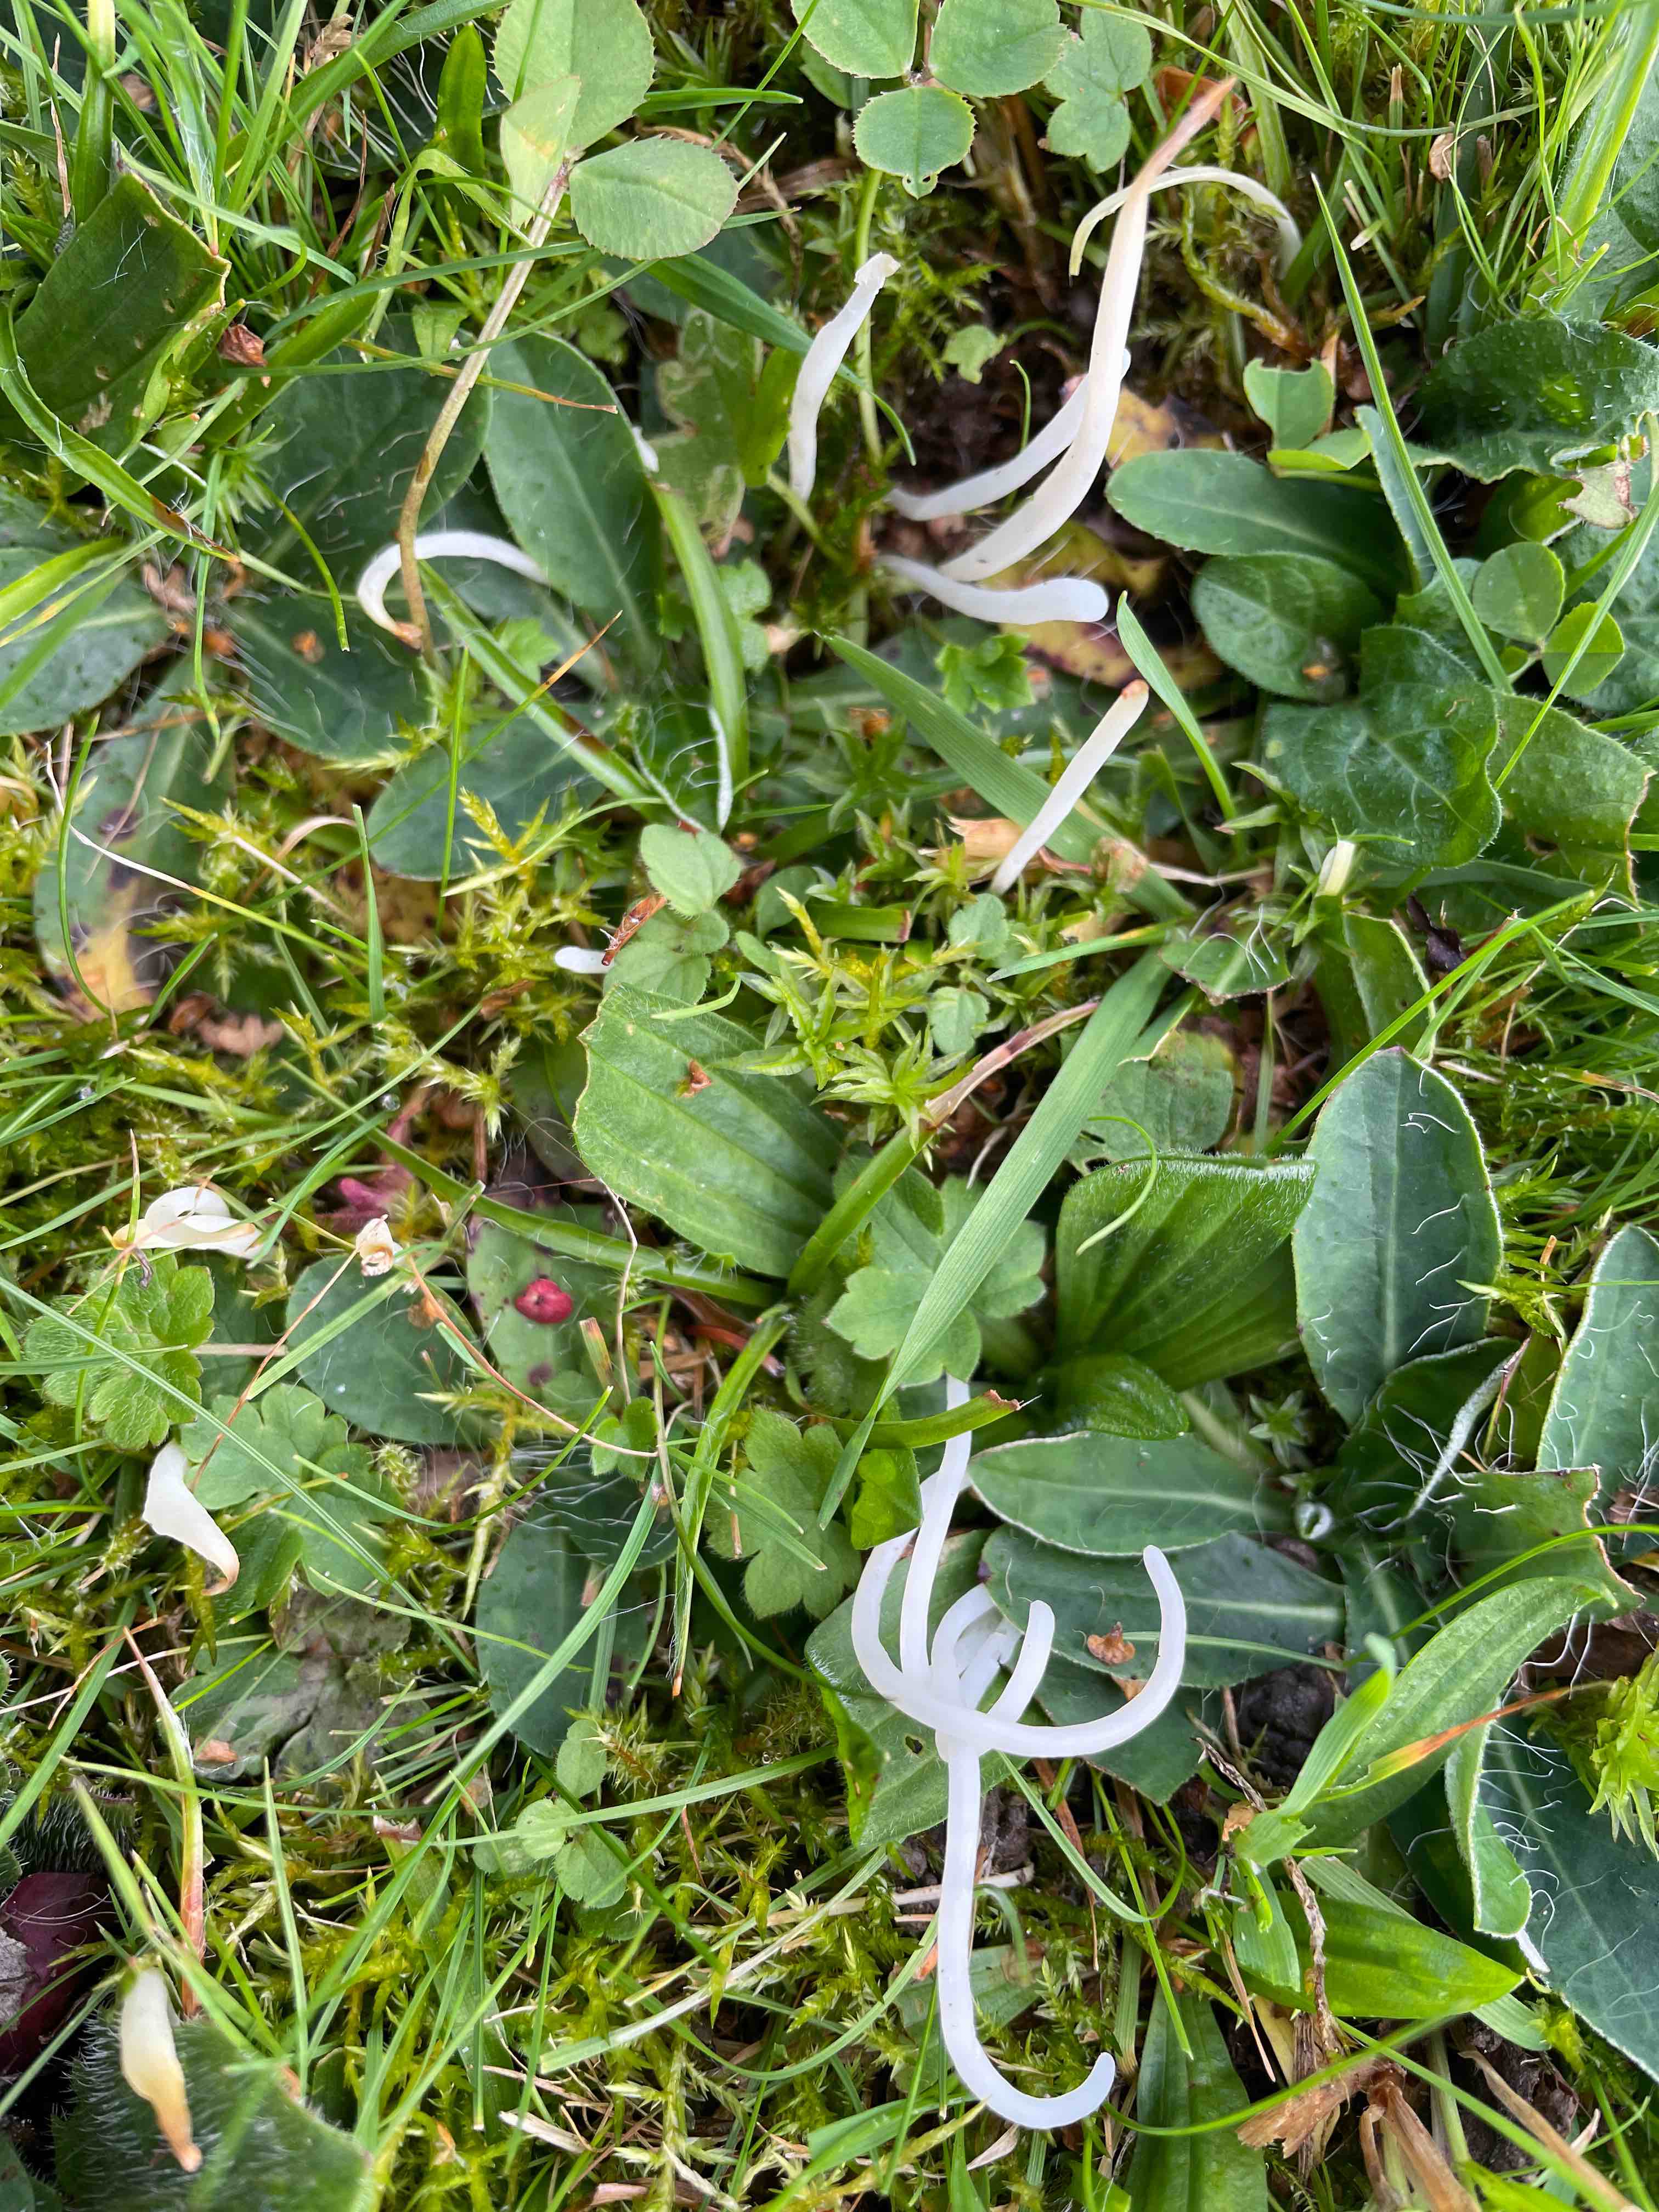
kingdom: Fungi
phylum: Basidiomycota
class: Agaricomycetes
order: Agaricales
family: Clavariaceae
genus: Clavaria
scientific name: Clavaria fragilis
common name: bugtet køllesvamp
